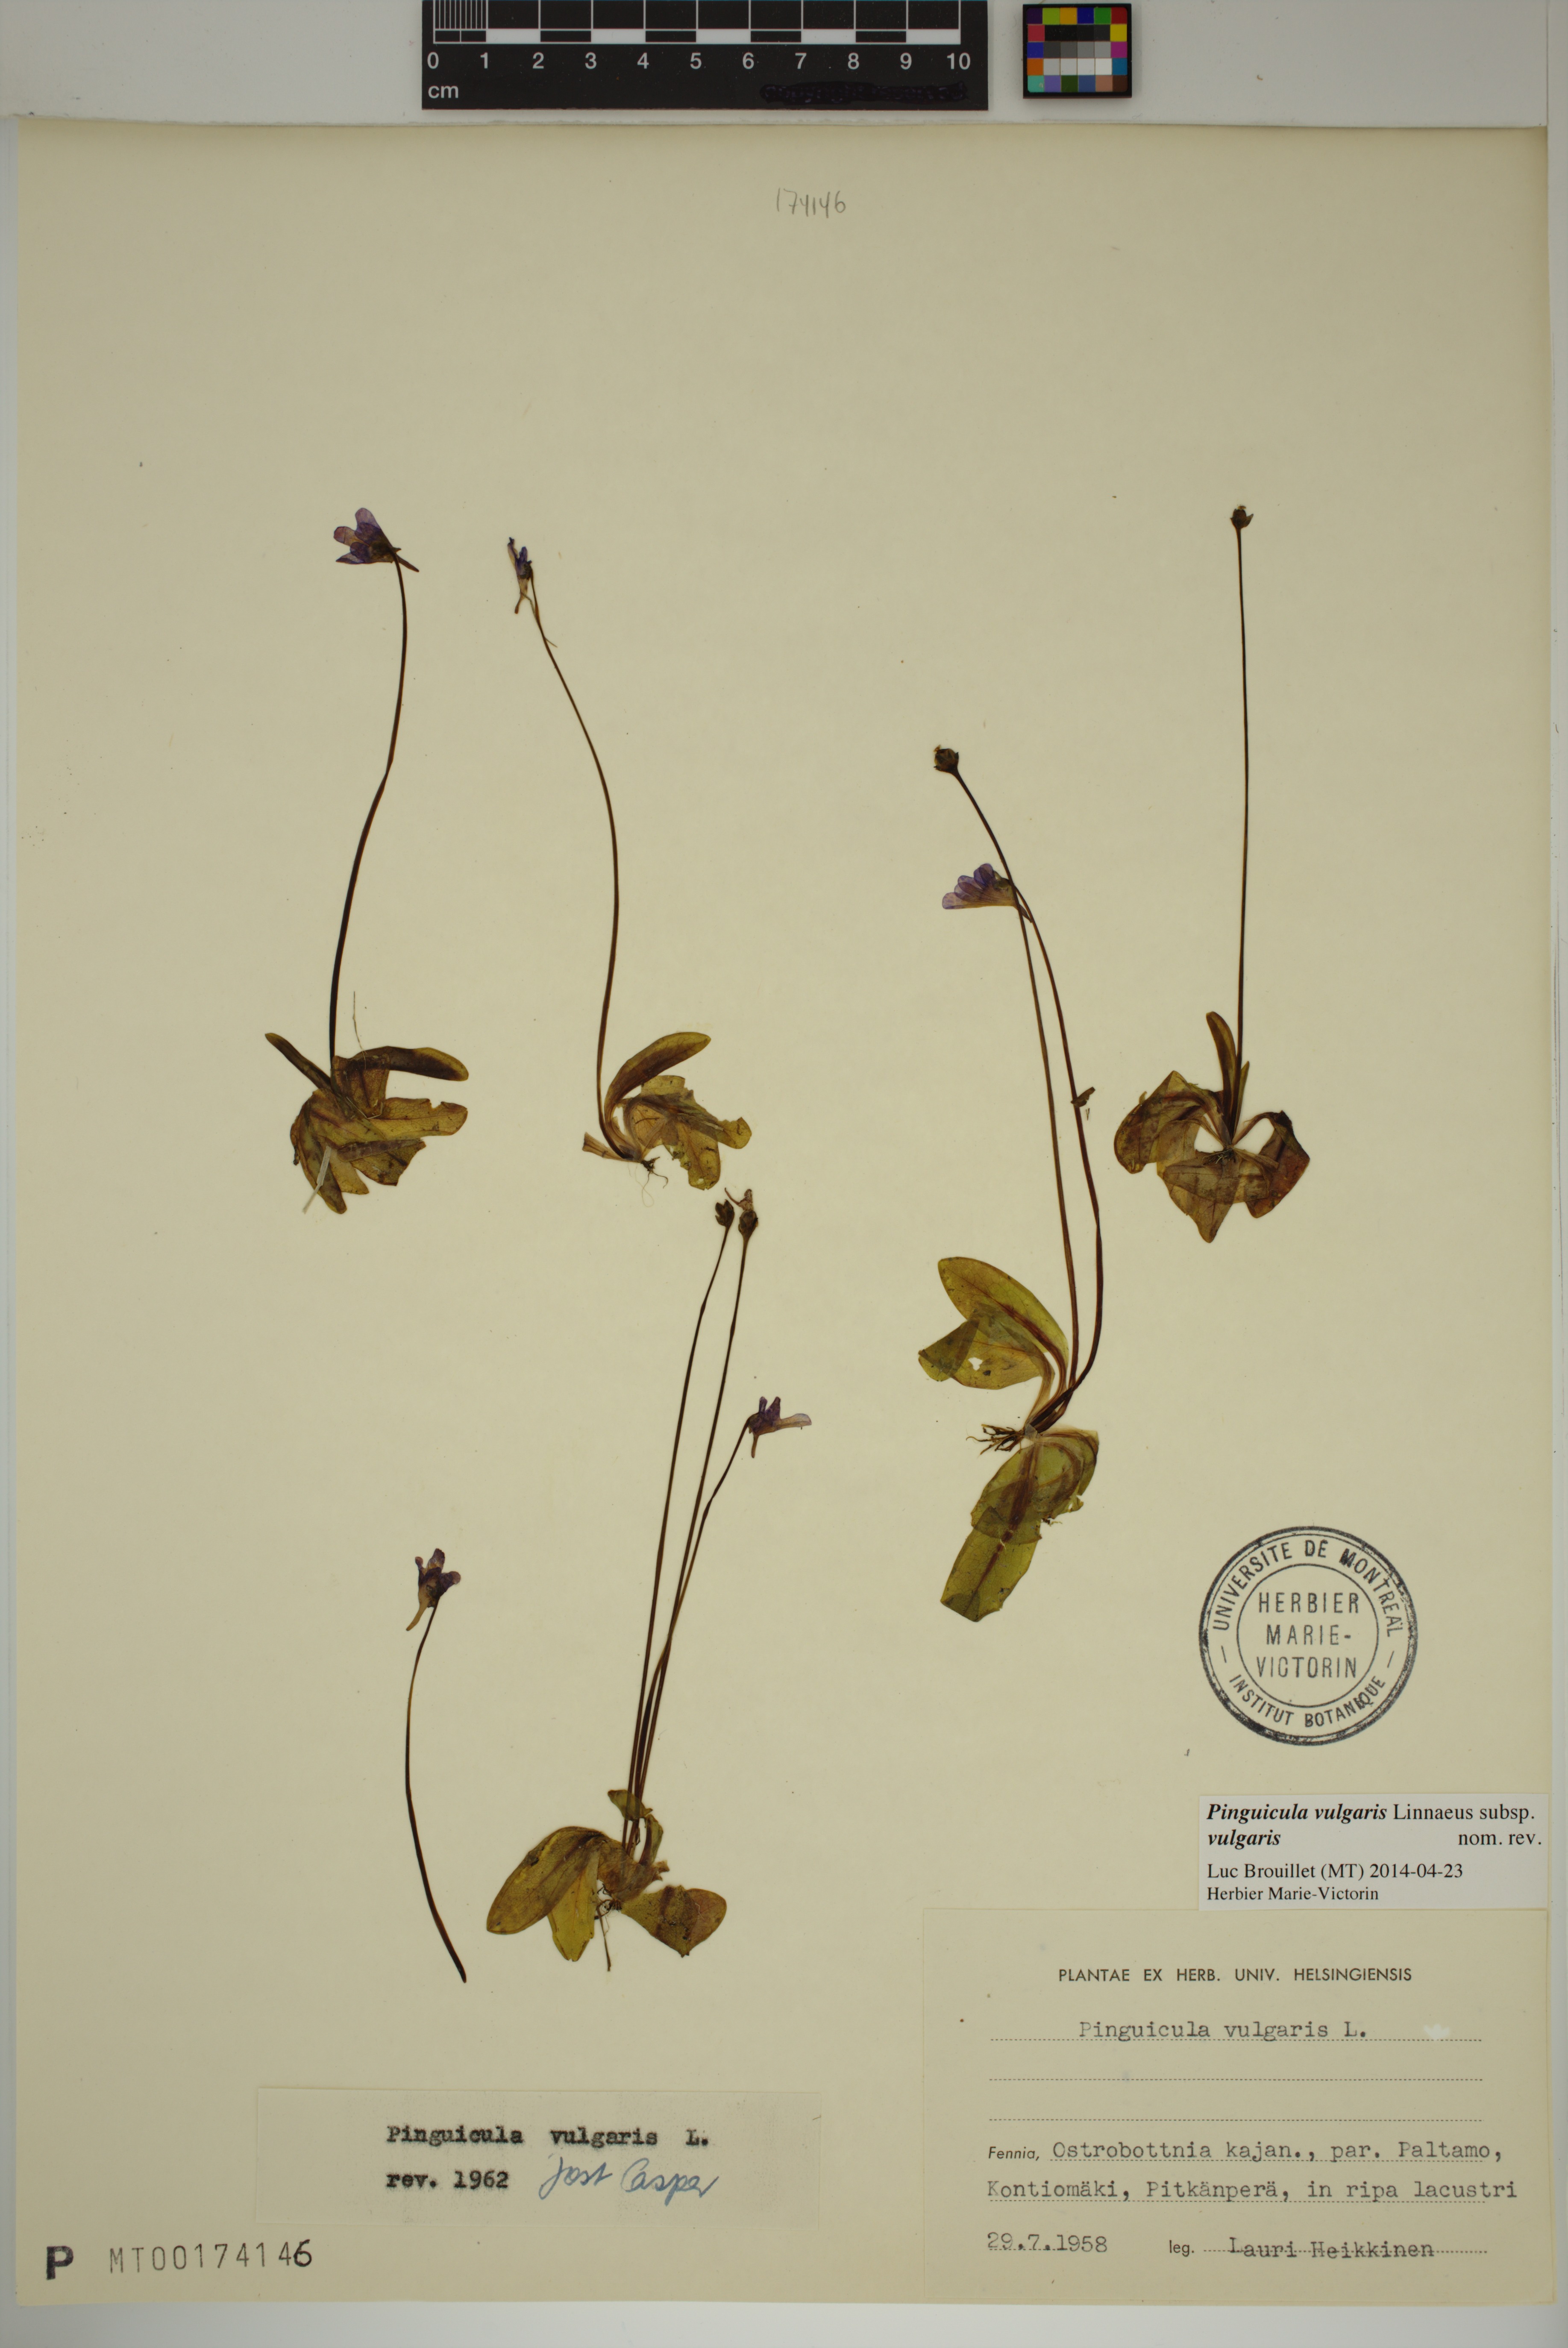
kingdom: Plantae
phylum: Tracheophyta
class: Magnoliopsida
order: Lamiales
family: Lentibulariaceae
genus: Pinguicula
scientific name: Pinguicula vulgaris
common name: Common butterwort
